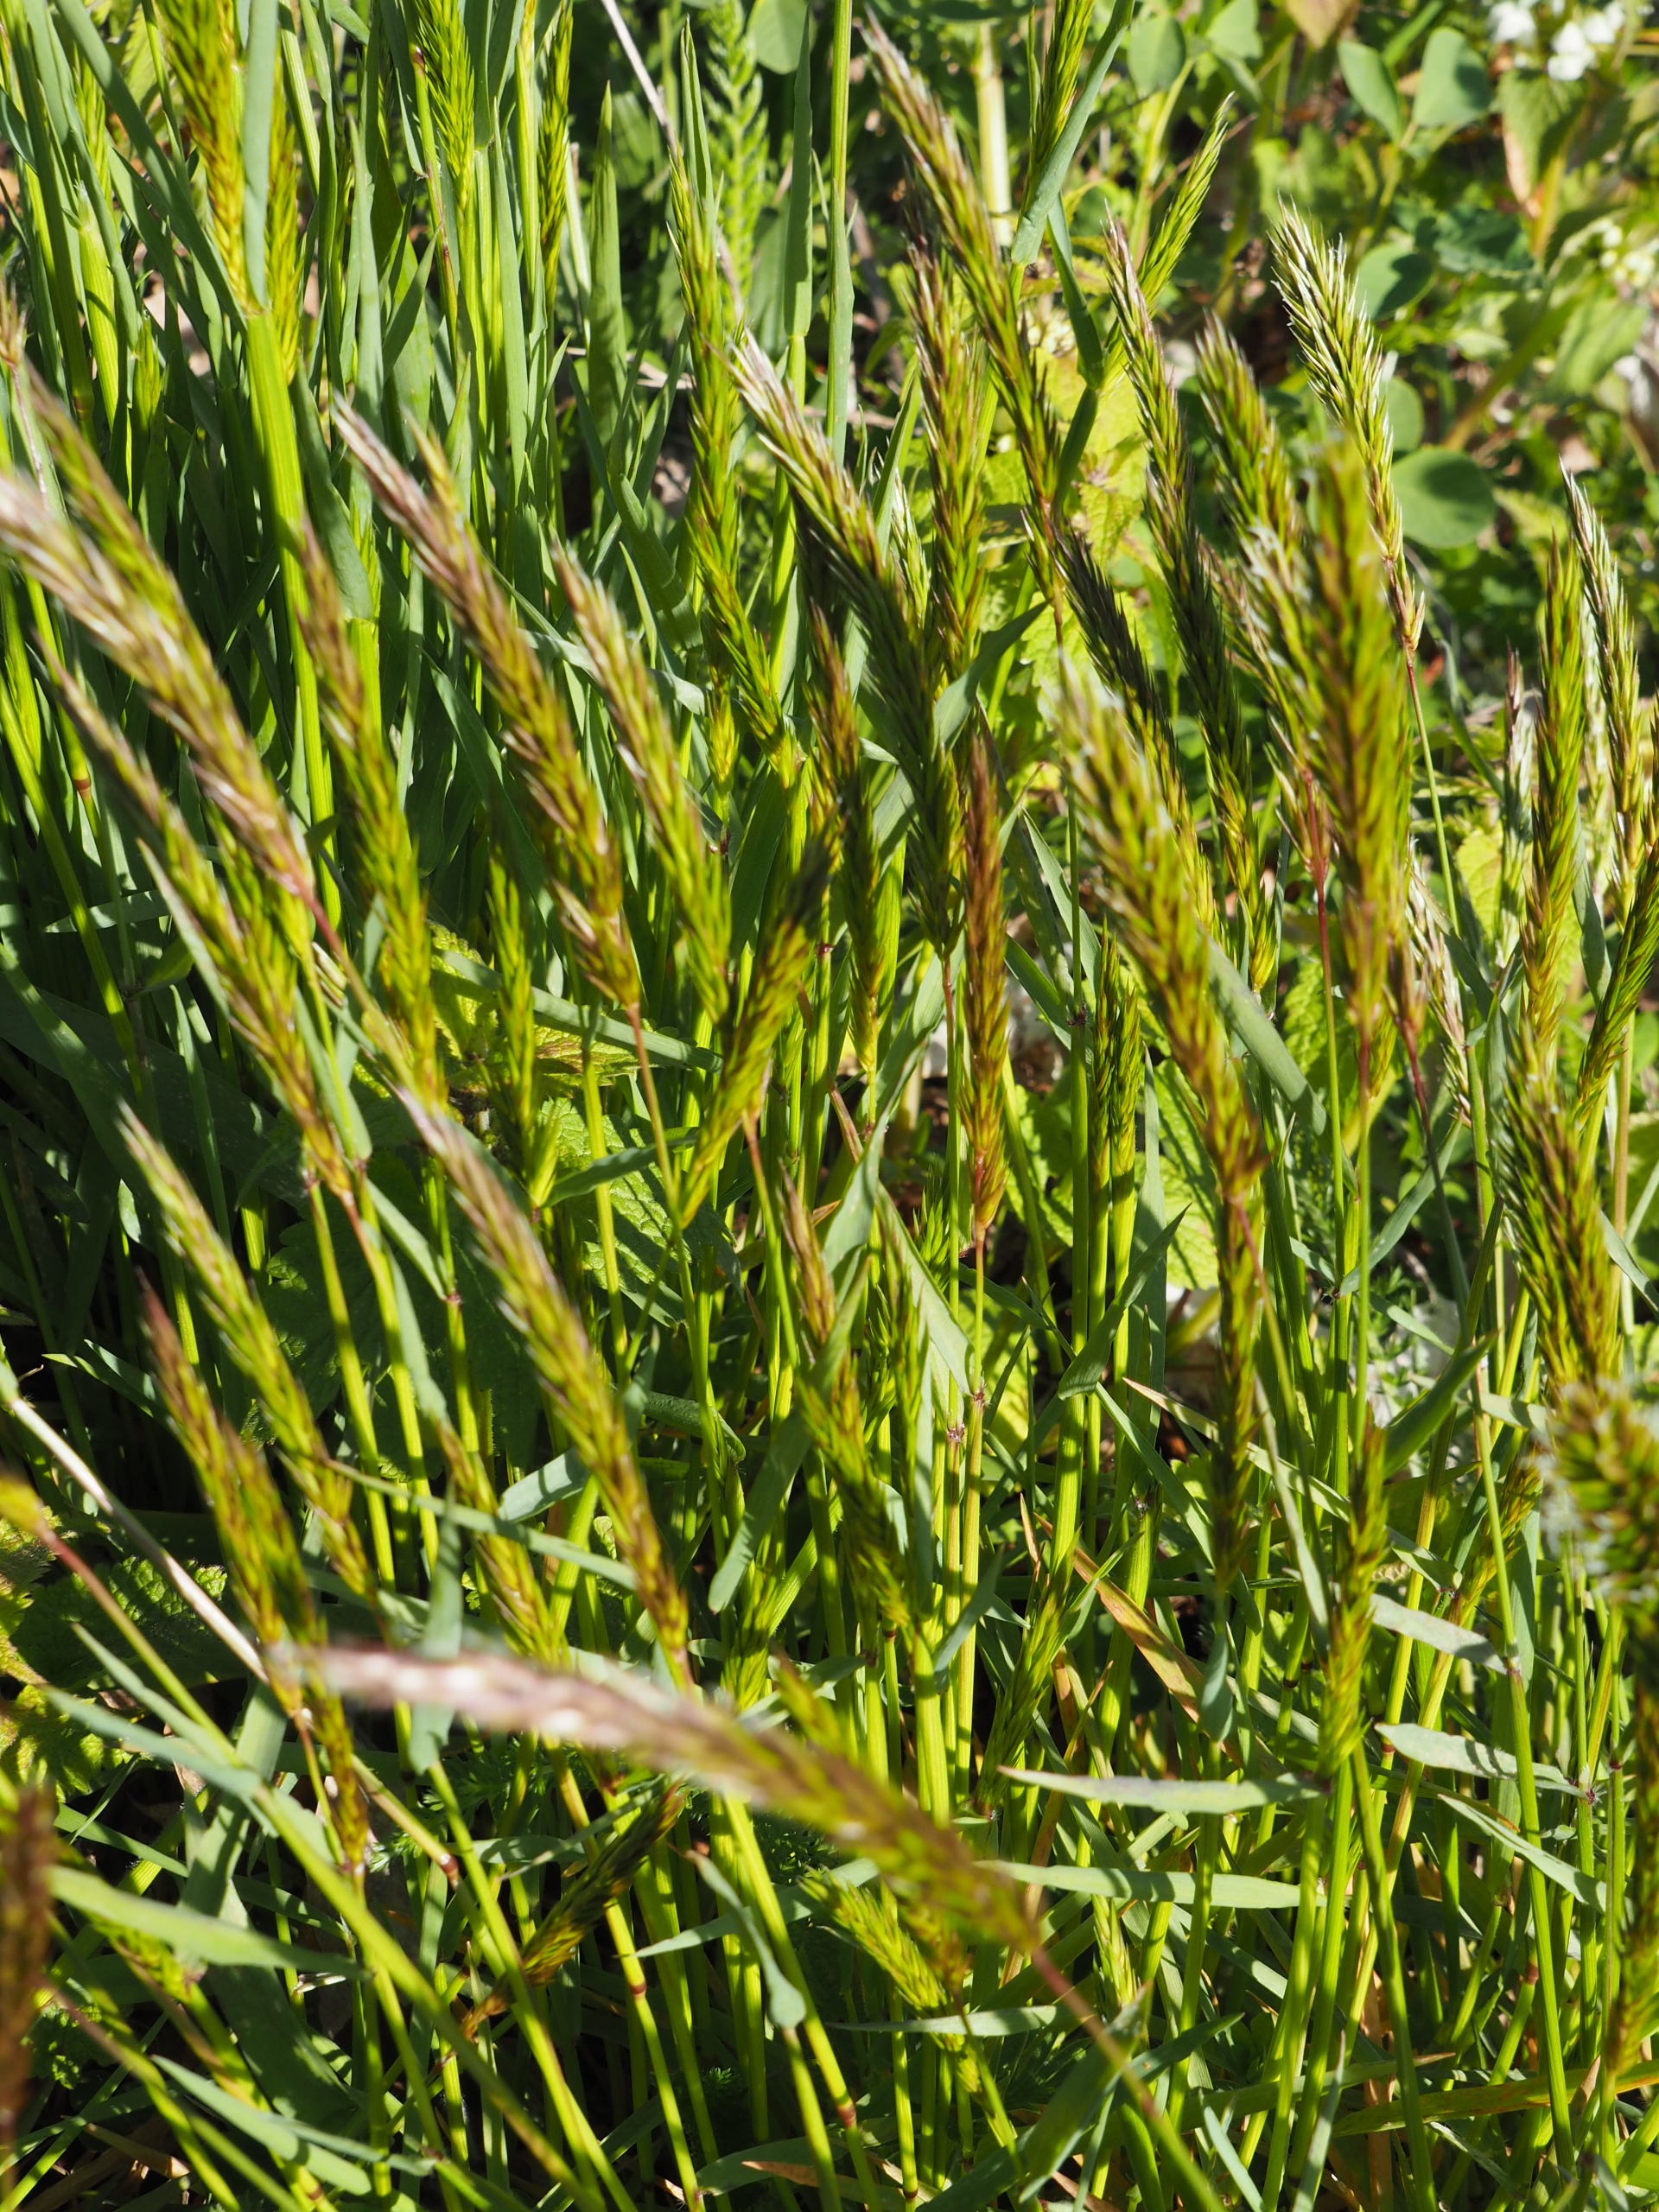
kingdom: Plantae
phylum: Tracheophyta
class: Liliopsida
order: Poales
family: Poaceae
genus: Anthoxanthum
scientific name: Anthoxanthum odoratum
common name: Vellugtende gulaks
